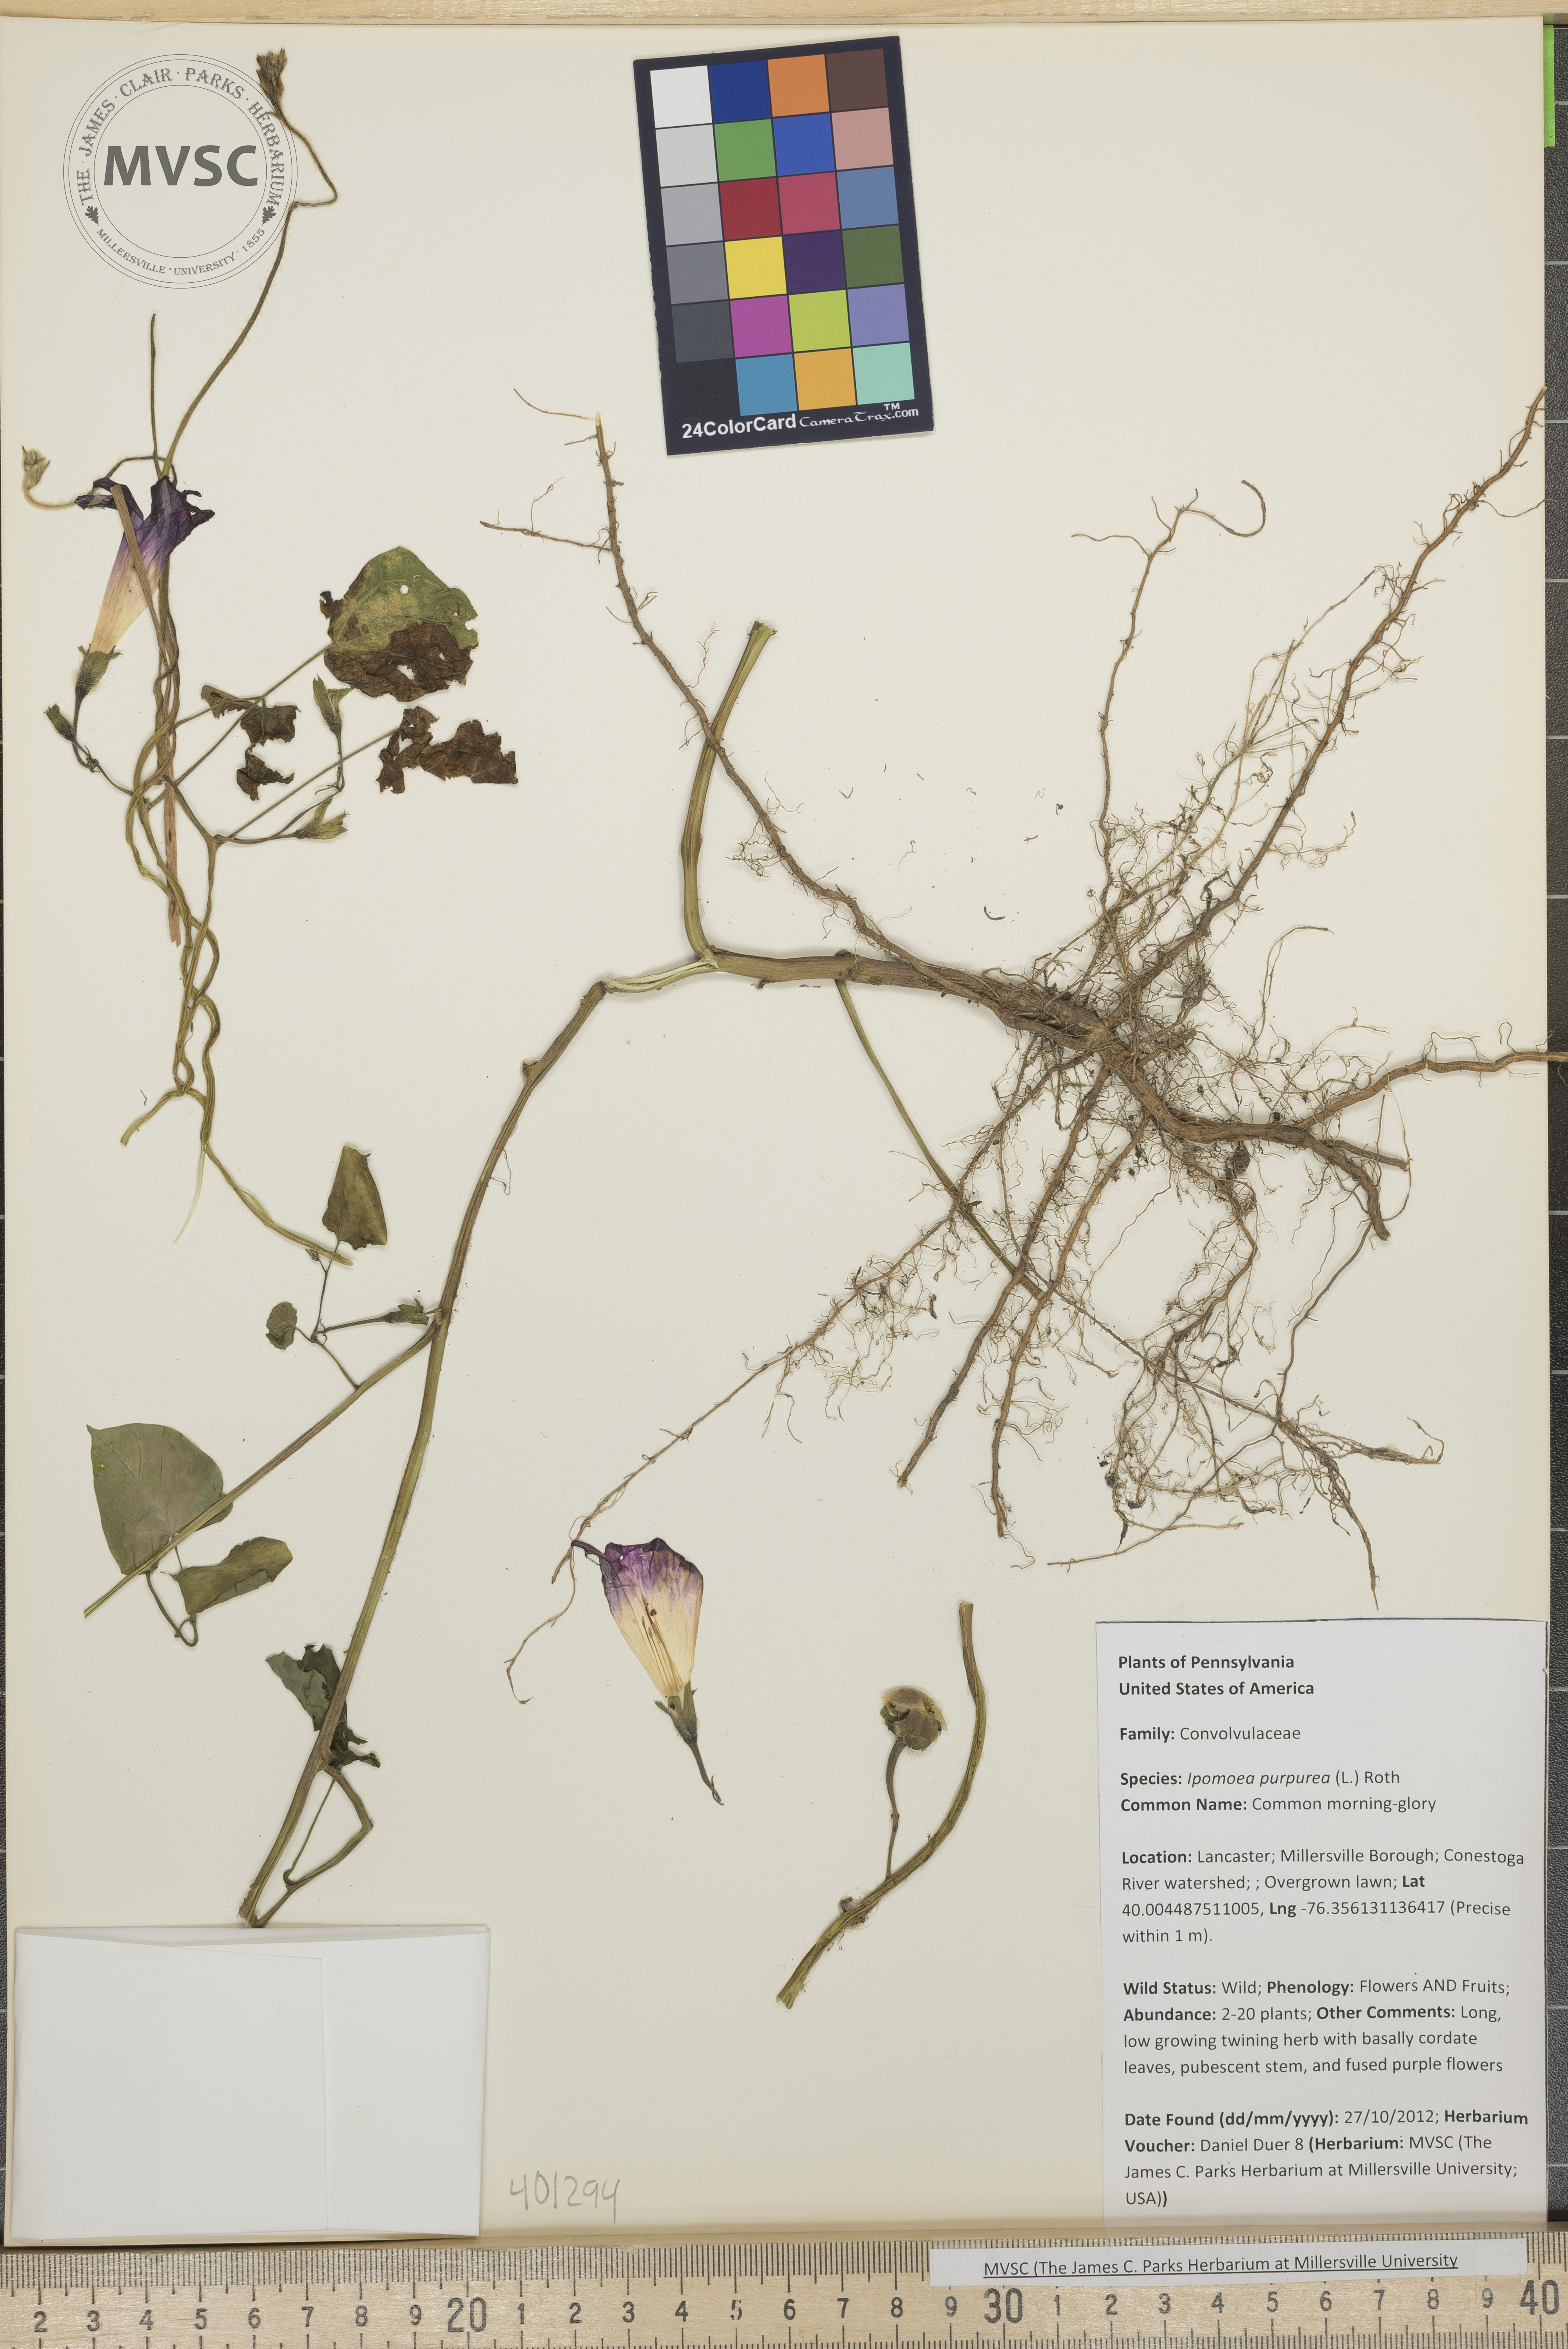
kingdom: Plantae
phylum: Tracheophyta
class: Magnoliopsida
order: Solanales
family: Convolvulaceae
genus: Ipomoea
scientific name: Ipomoea purpurea
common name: Common morning-glory
